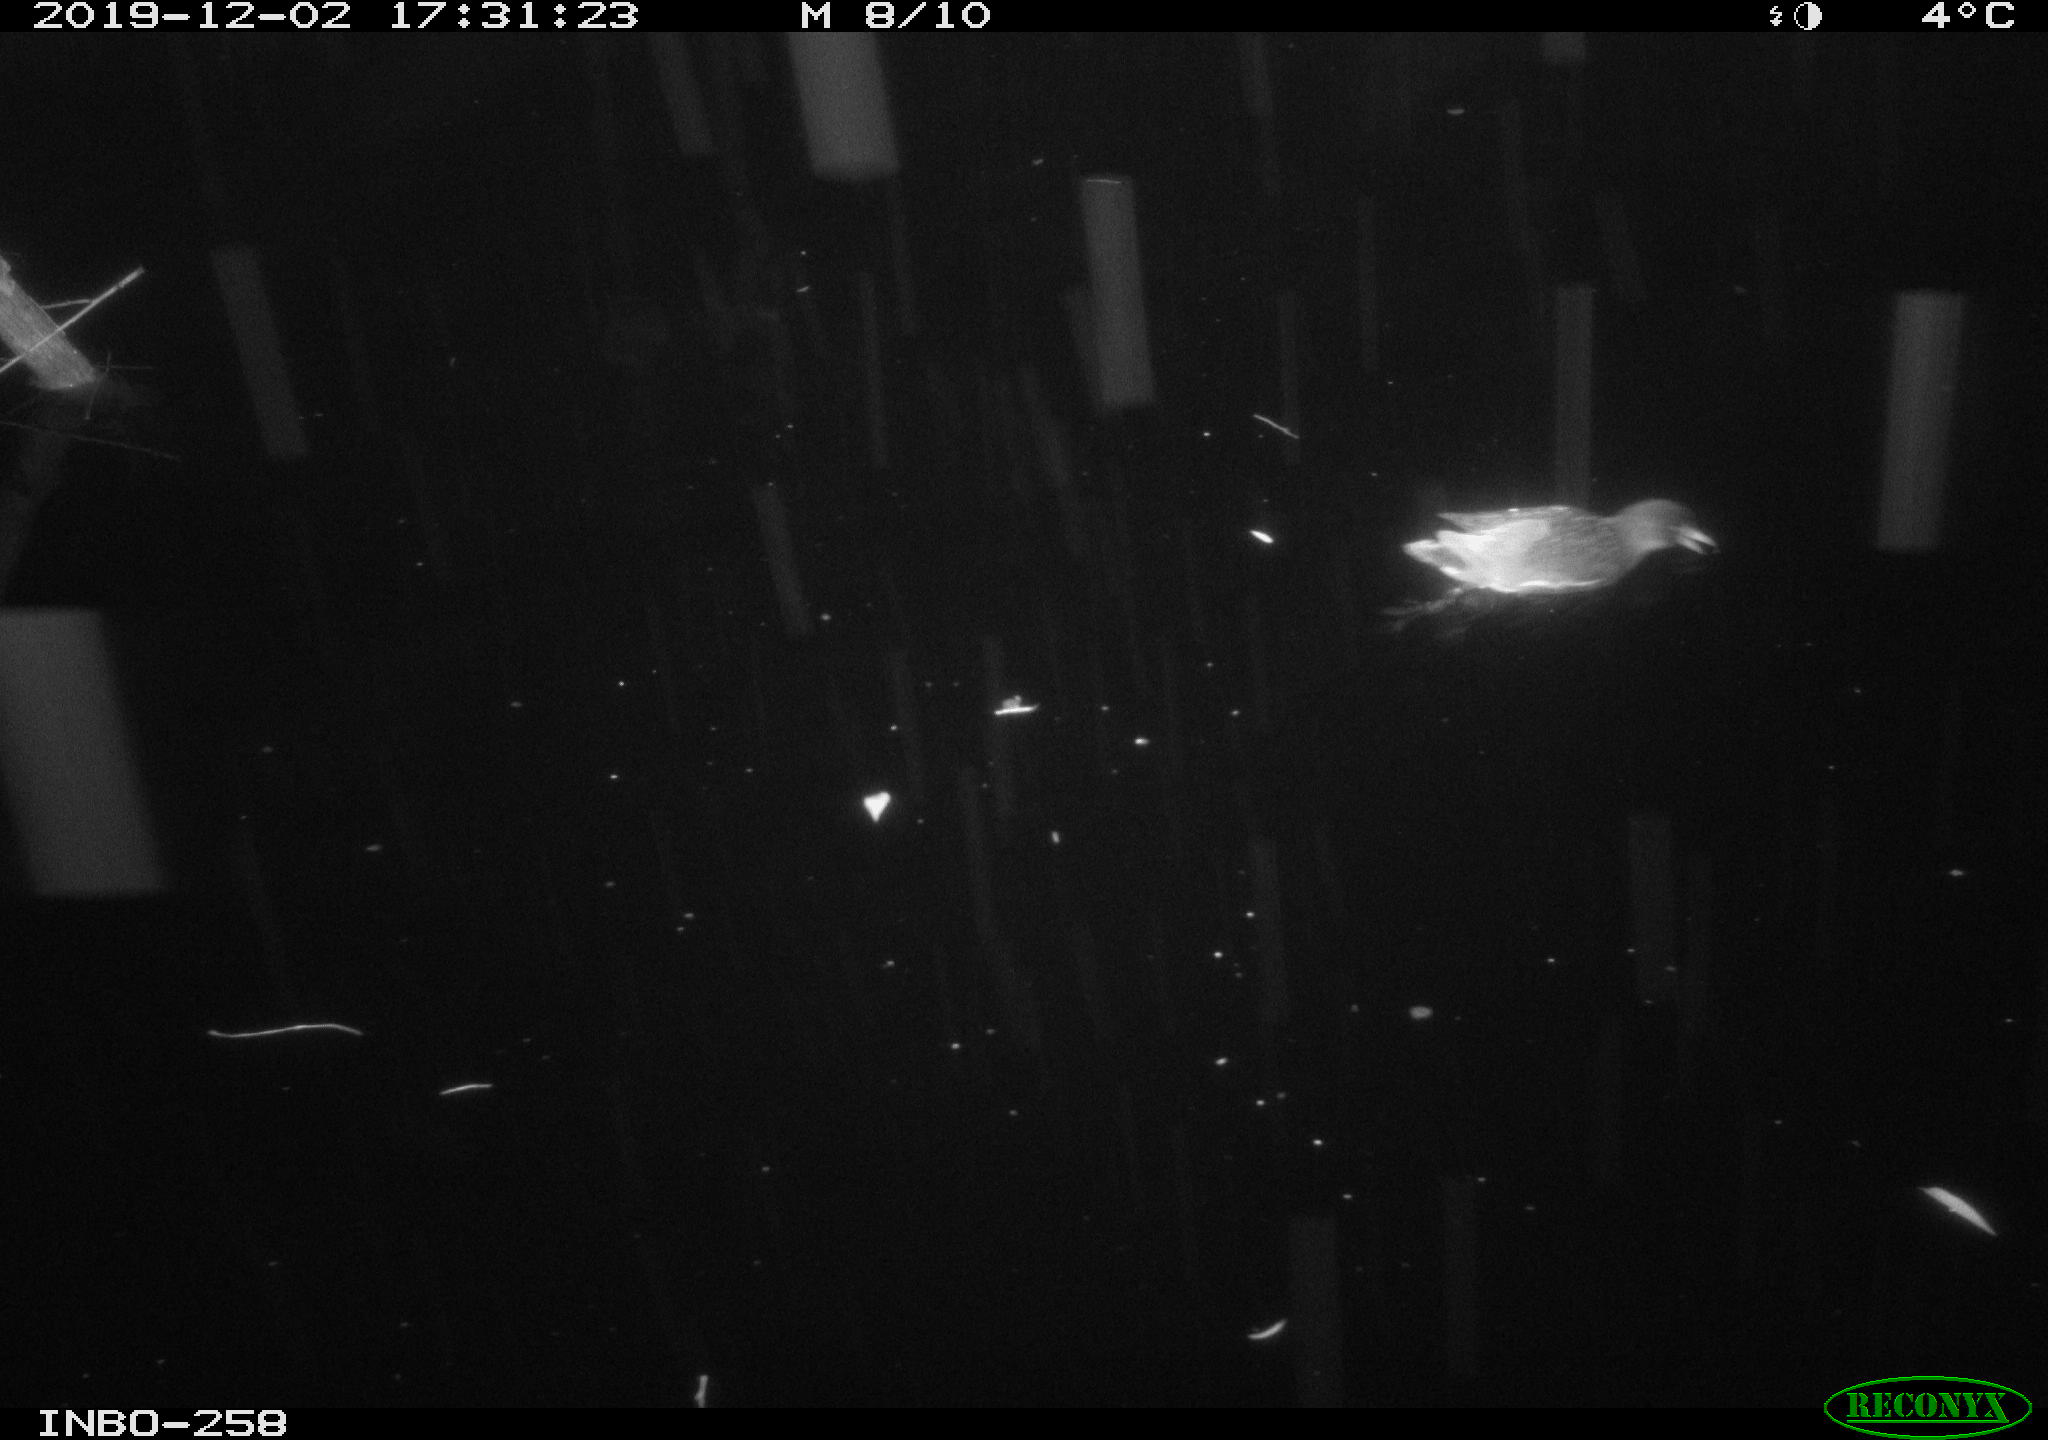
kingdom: Animalia
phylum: Chordata
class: Aves
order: Gruiformes
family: Rallidae
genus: Gallinula
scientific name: Gallinula chloropus
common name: Common moorhen
